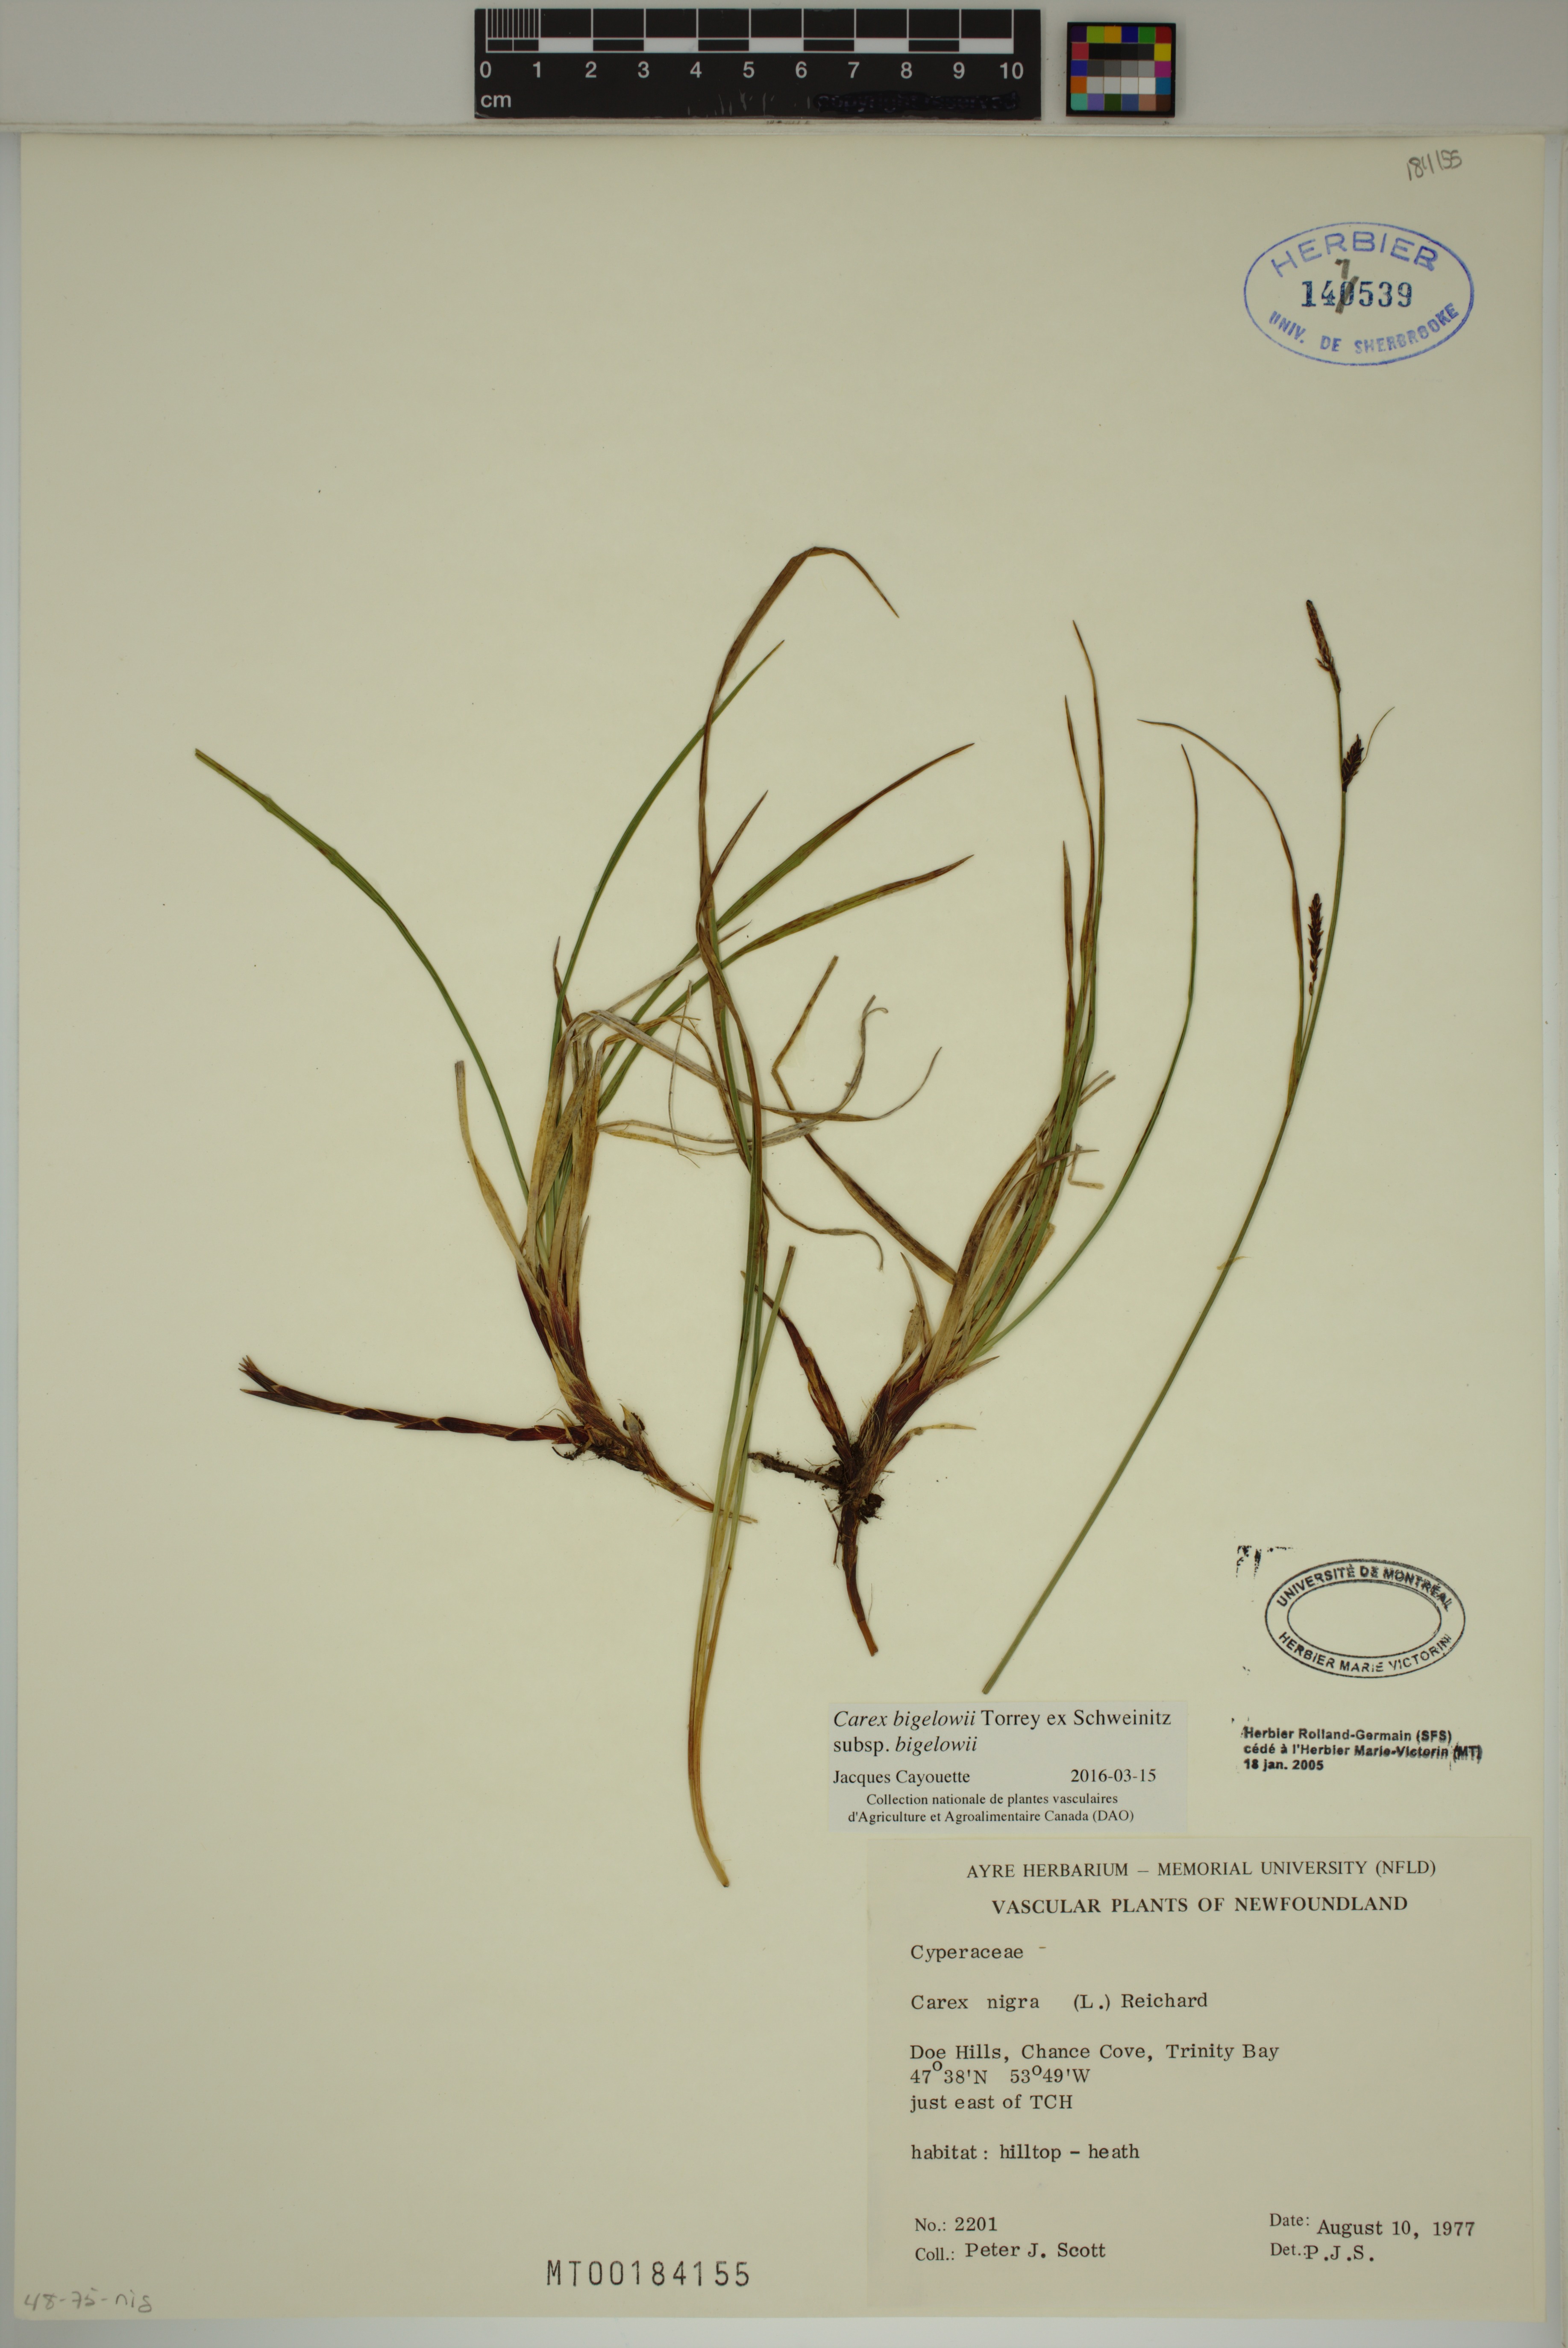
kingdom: Plantae
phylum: Tracheophyta
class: Liliopsida
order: Poales
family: Cyperaceae
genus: Carex
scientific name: Carex bigelowii
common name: Stiff sedge
